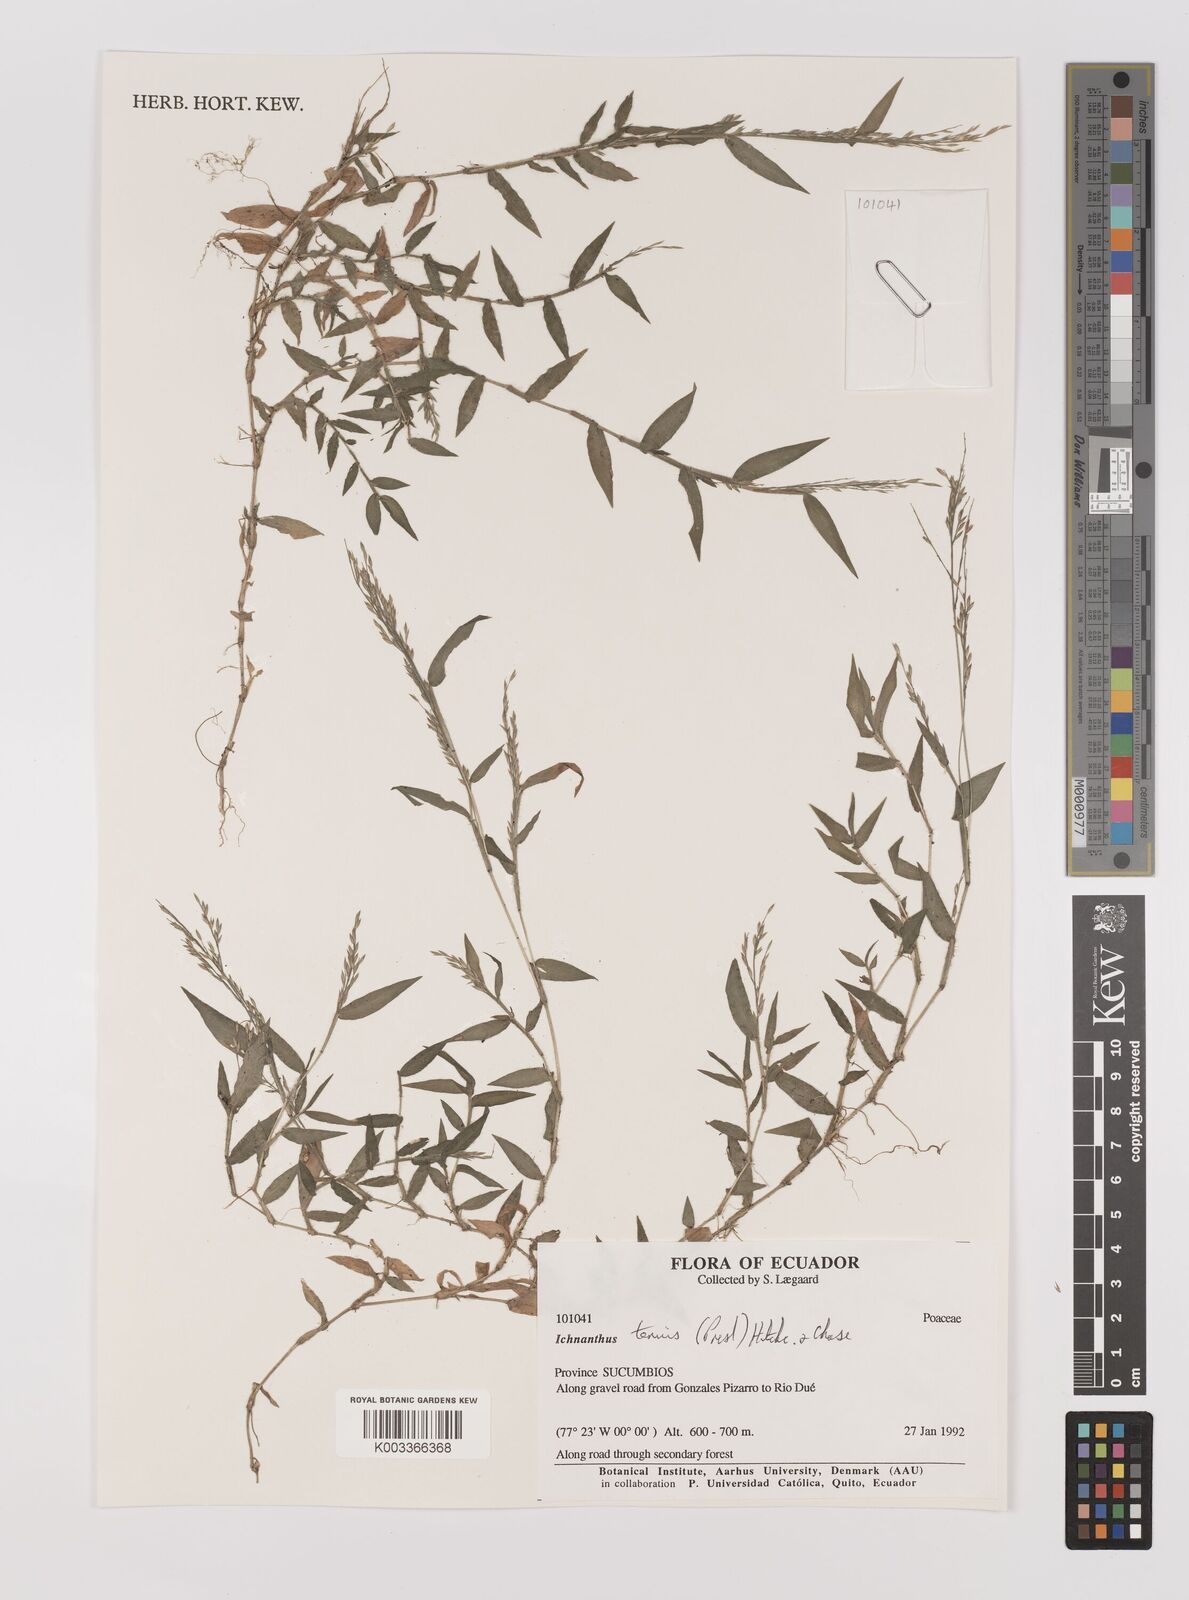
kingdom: Plantae
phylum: Tracheophyta
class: Liliopsida
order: Poales
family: Poaceae
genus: Ichnanthus
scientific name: Ichnanthus tenuis
